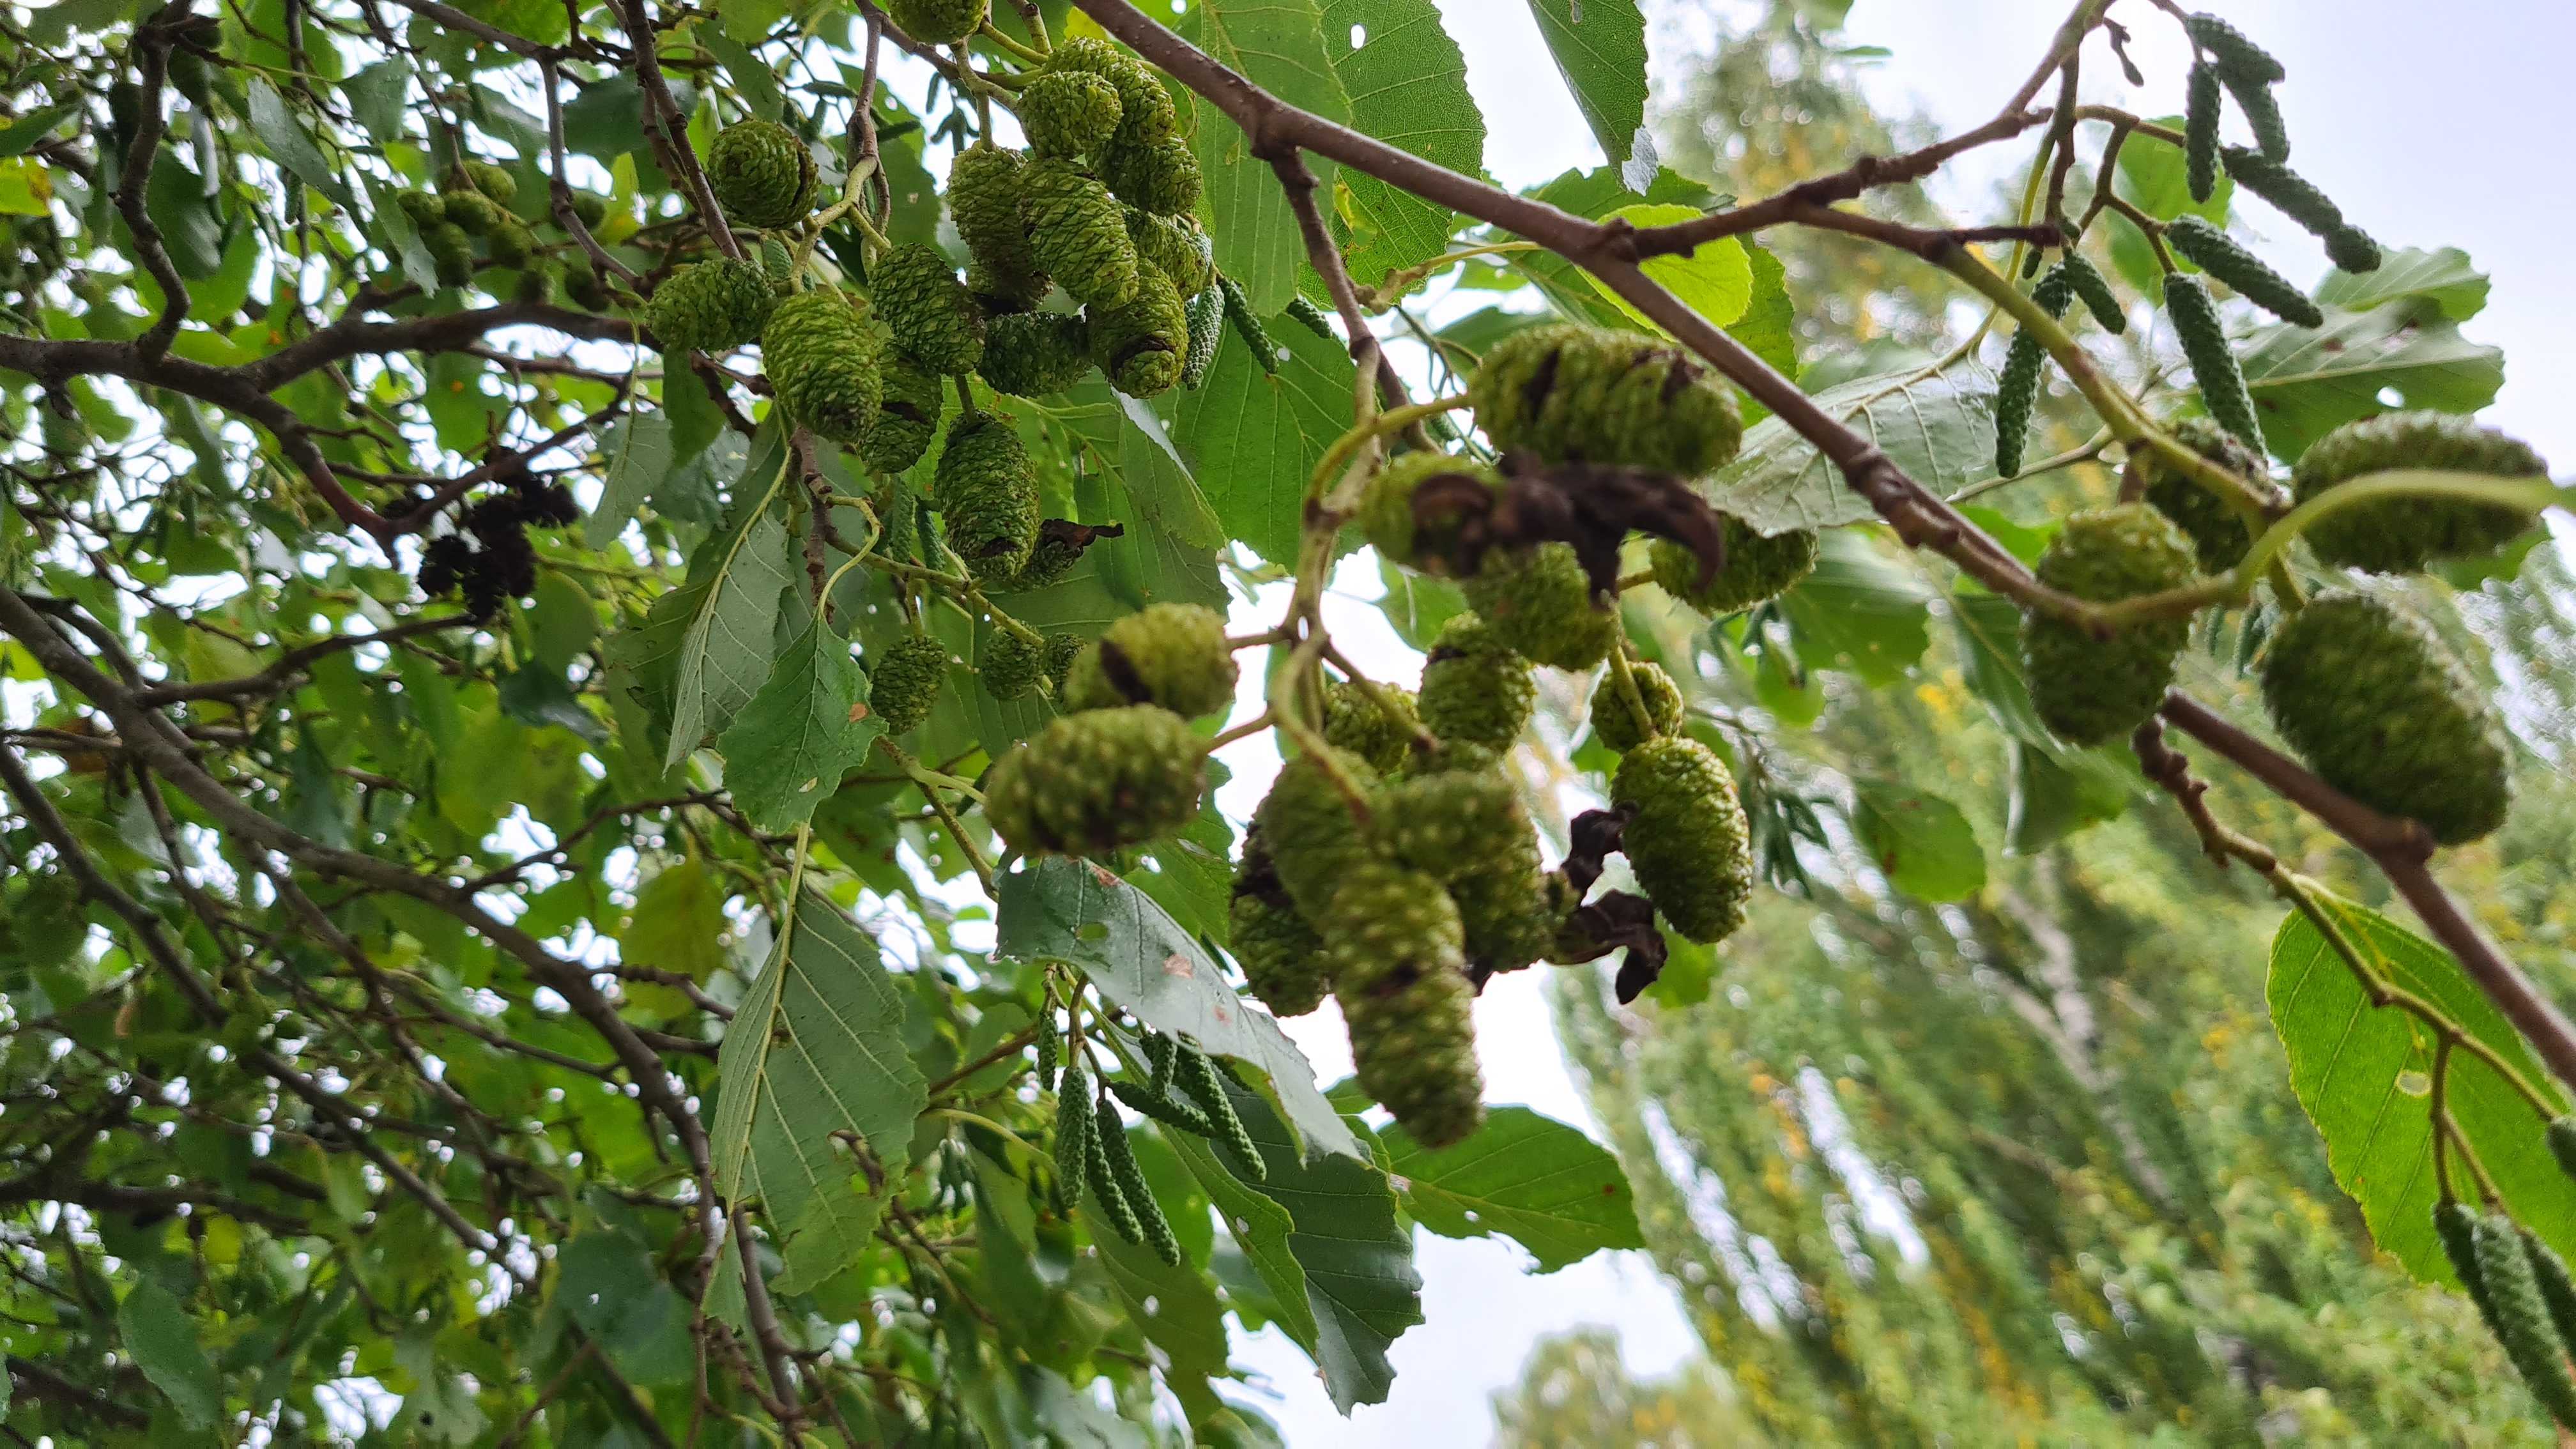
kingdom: Fungi
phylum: Ascomycota
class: Taphrinomycetes
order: Taphrinales
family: Taphrinaceae
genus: Taphrina
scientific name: Taphrina alni
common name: Alder tongue
